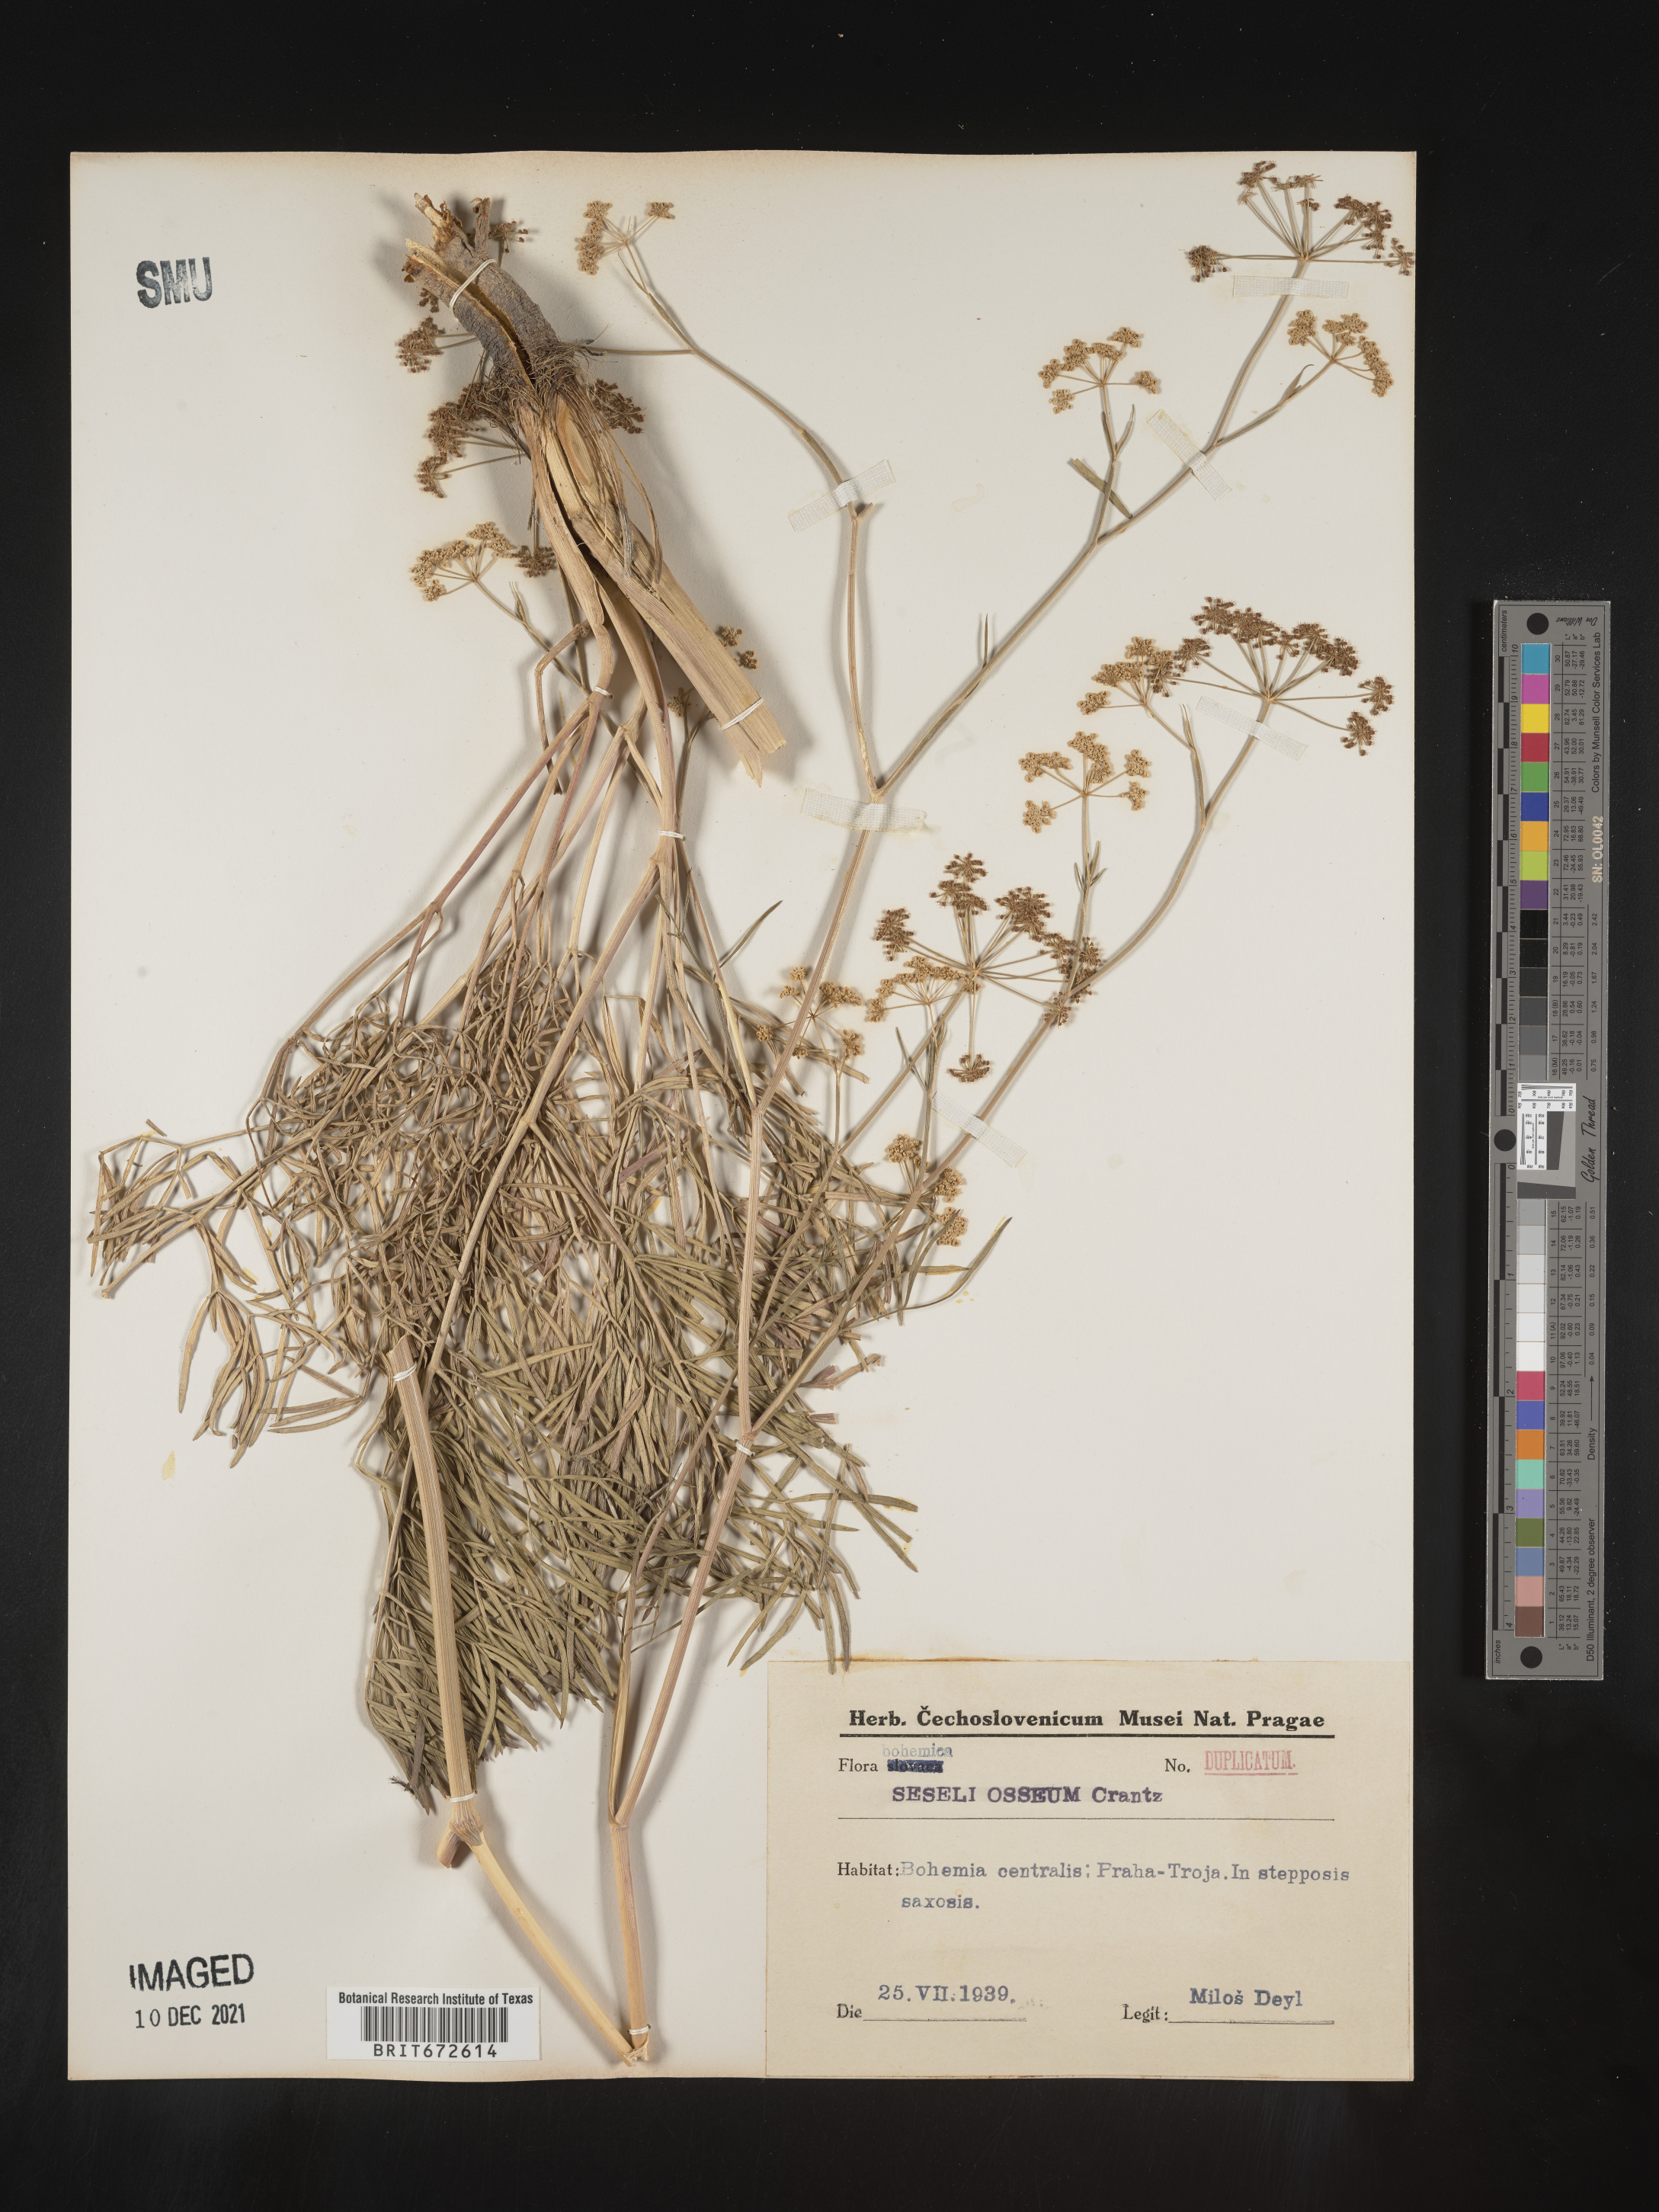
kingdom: Plantae
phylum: Tracheophyta
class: Magnoliopsida
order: Apiales
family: Apiaceae
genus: Seseli
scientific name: Seseli
